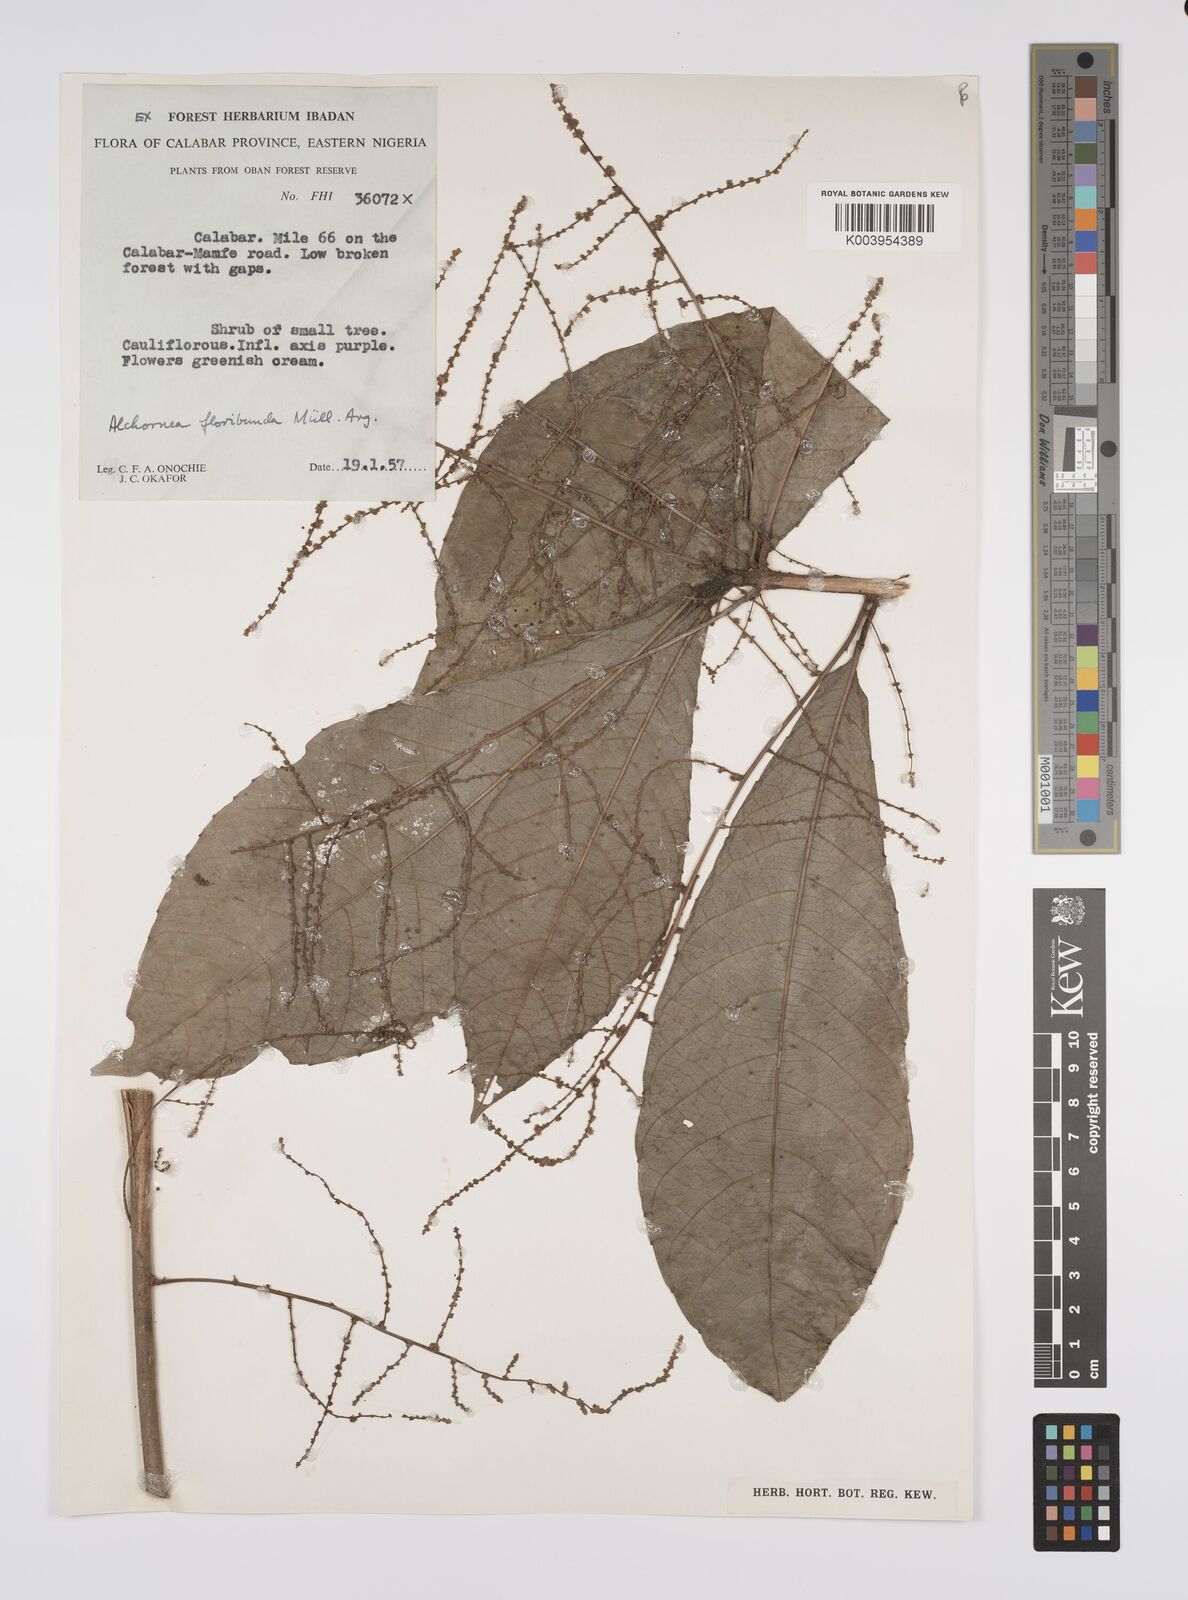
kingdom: Plantae
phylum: Tracheophyta
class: Magnoliopsida
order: Malpighiales
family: Euphorbiaceae
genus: Alchornea
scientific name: Alchornea floribunda
